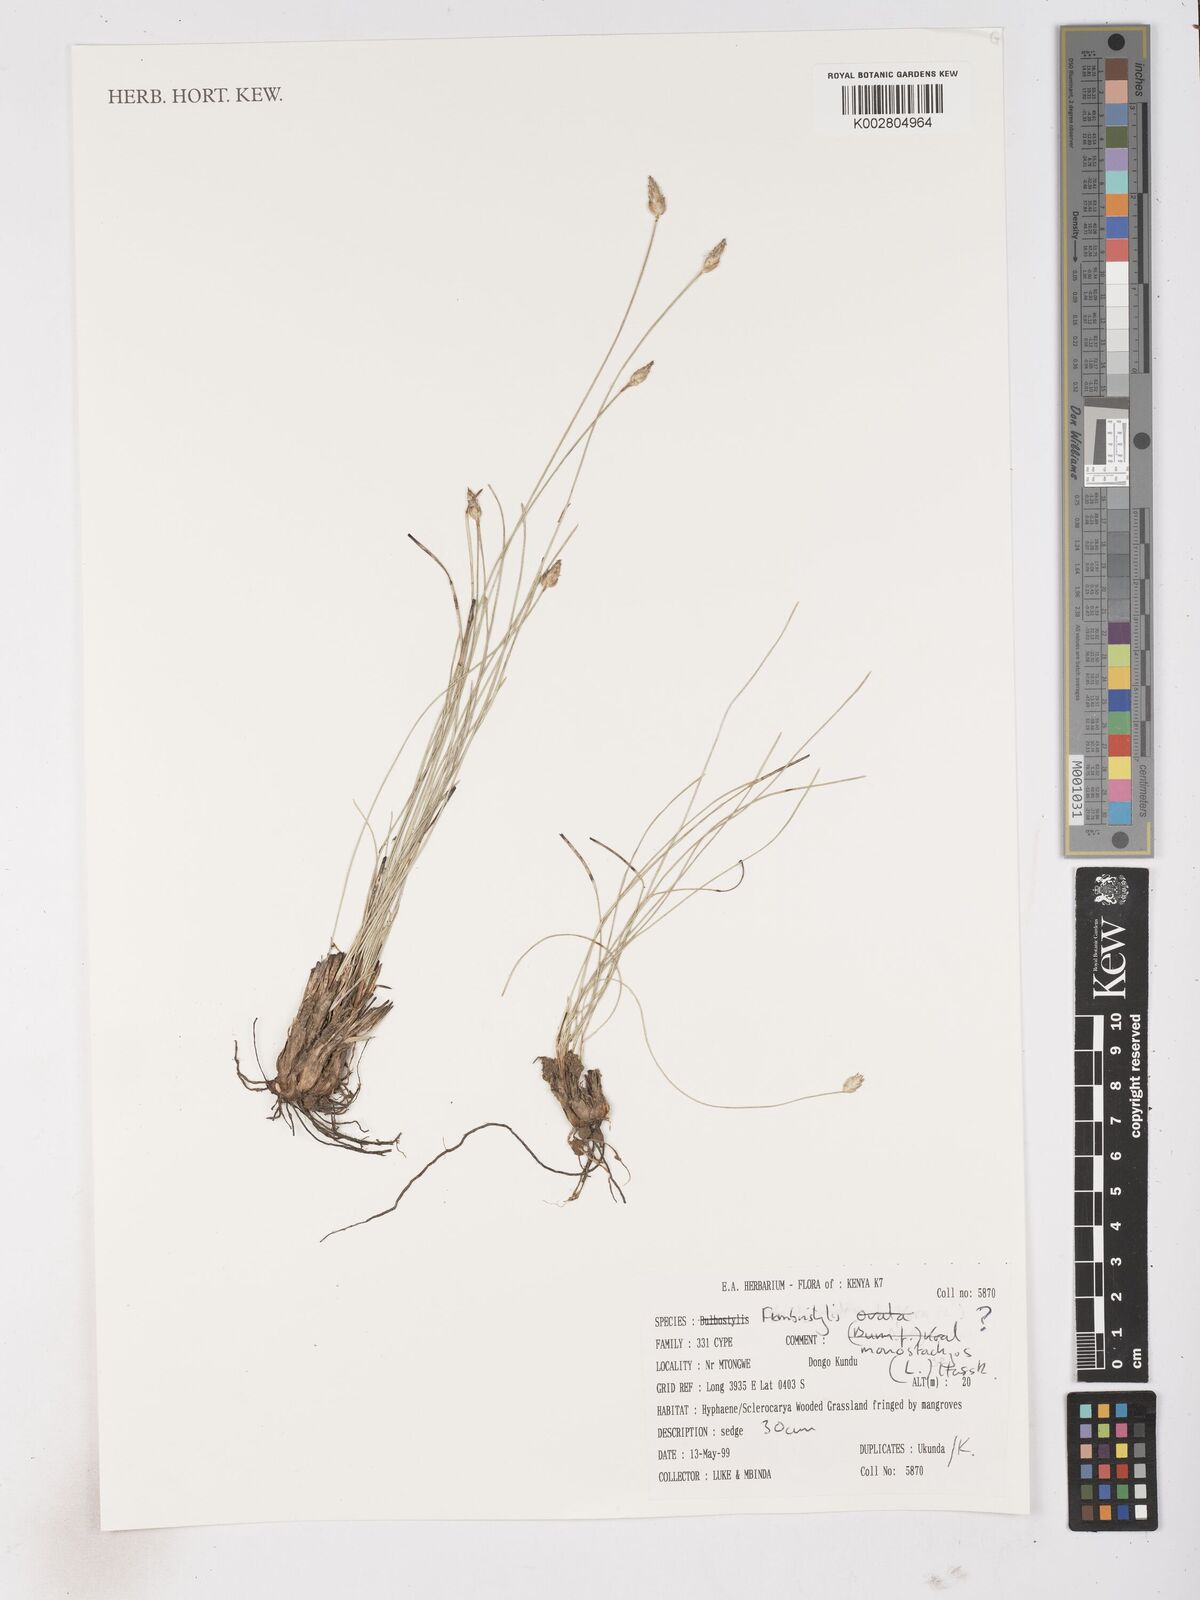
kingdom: Plantae
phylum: Tracheophyta
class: Liliopsida
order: Poales
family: Cyperaceae
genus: Abildgaardia
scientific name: Abildgaardia ovata
